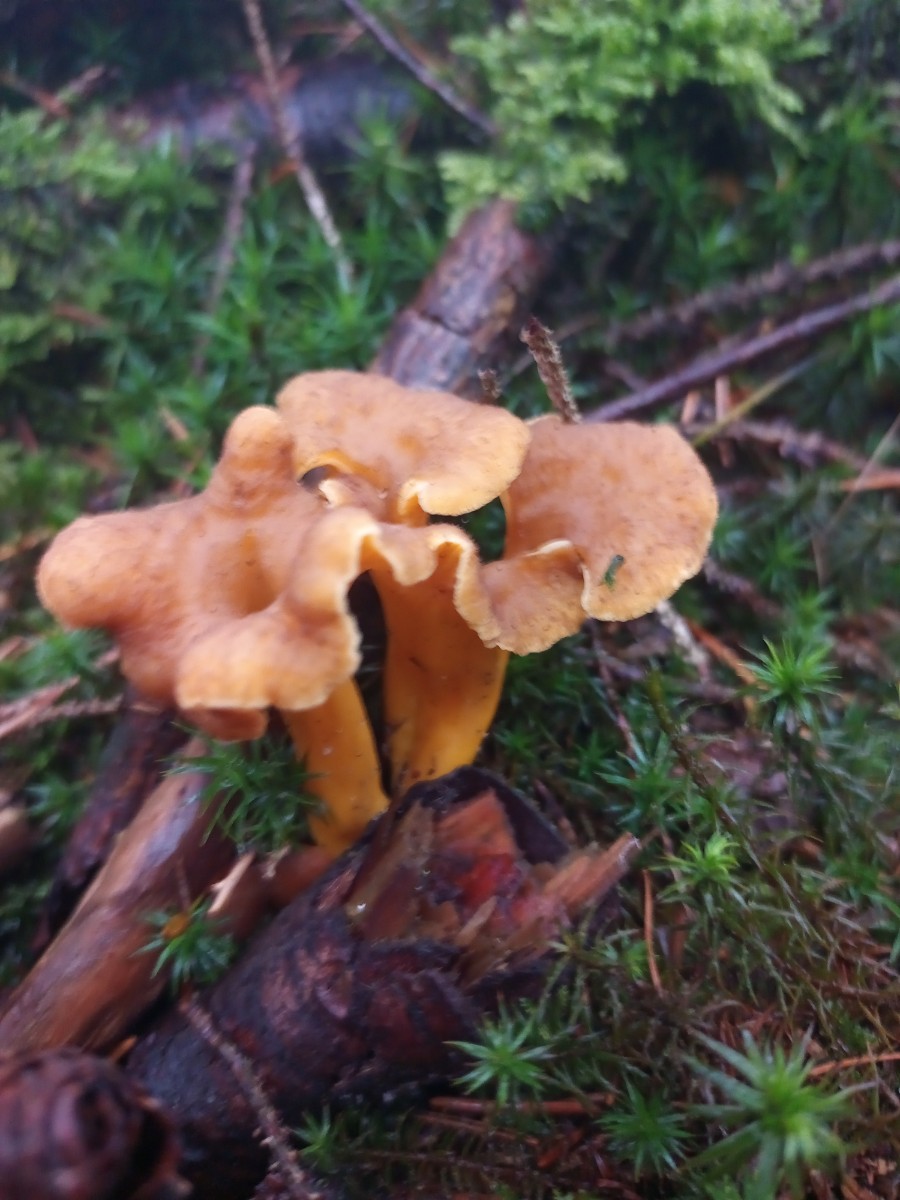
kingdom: Fungi
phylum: Basidiomycota
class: Agaricomycetes
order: Cantharellales
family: Hydnaceae
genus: Craterellus
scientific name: Craterellus tubaeformis
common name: tragt-kantarel
